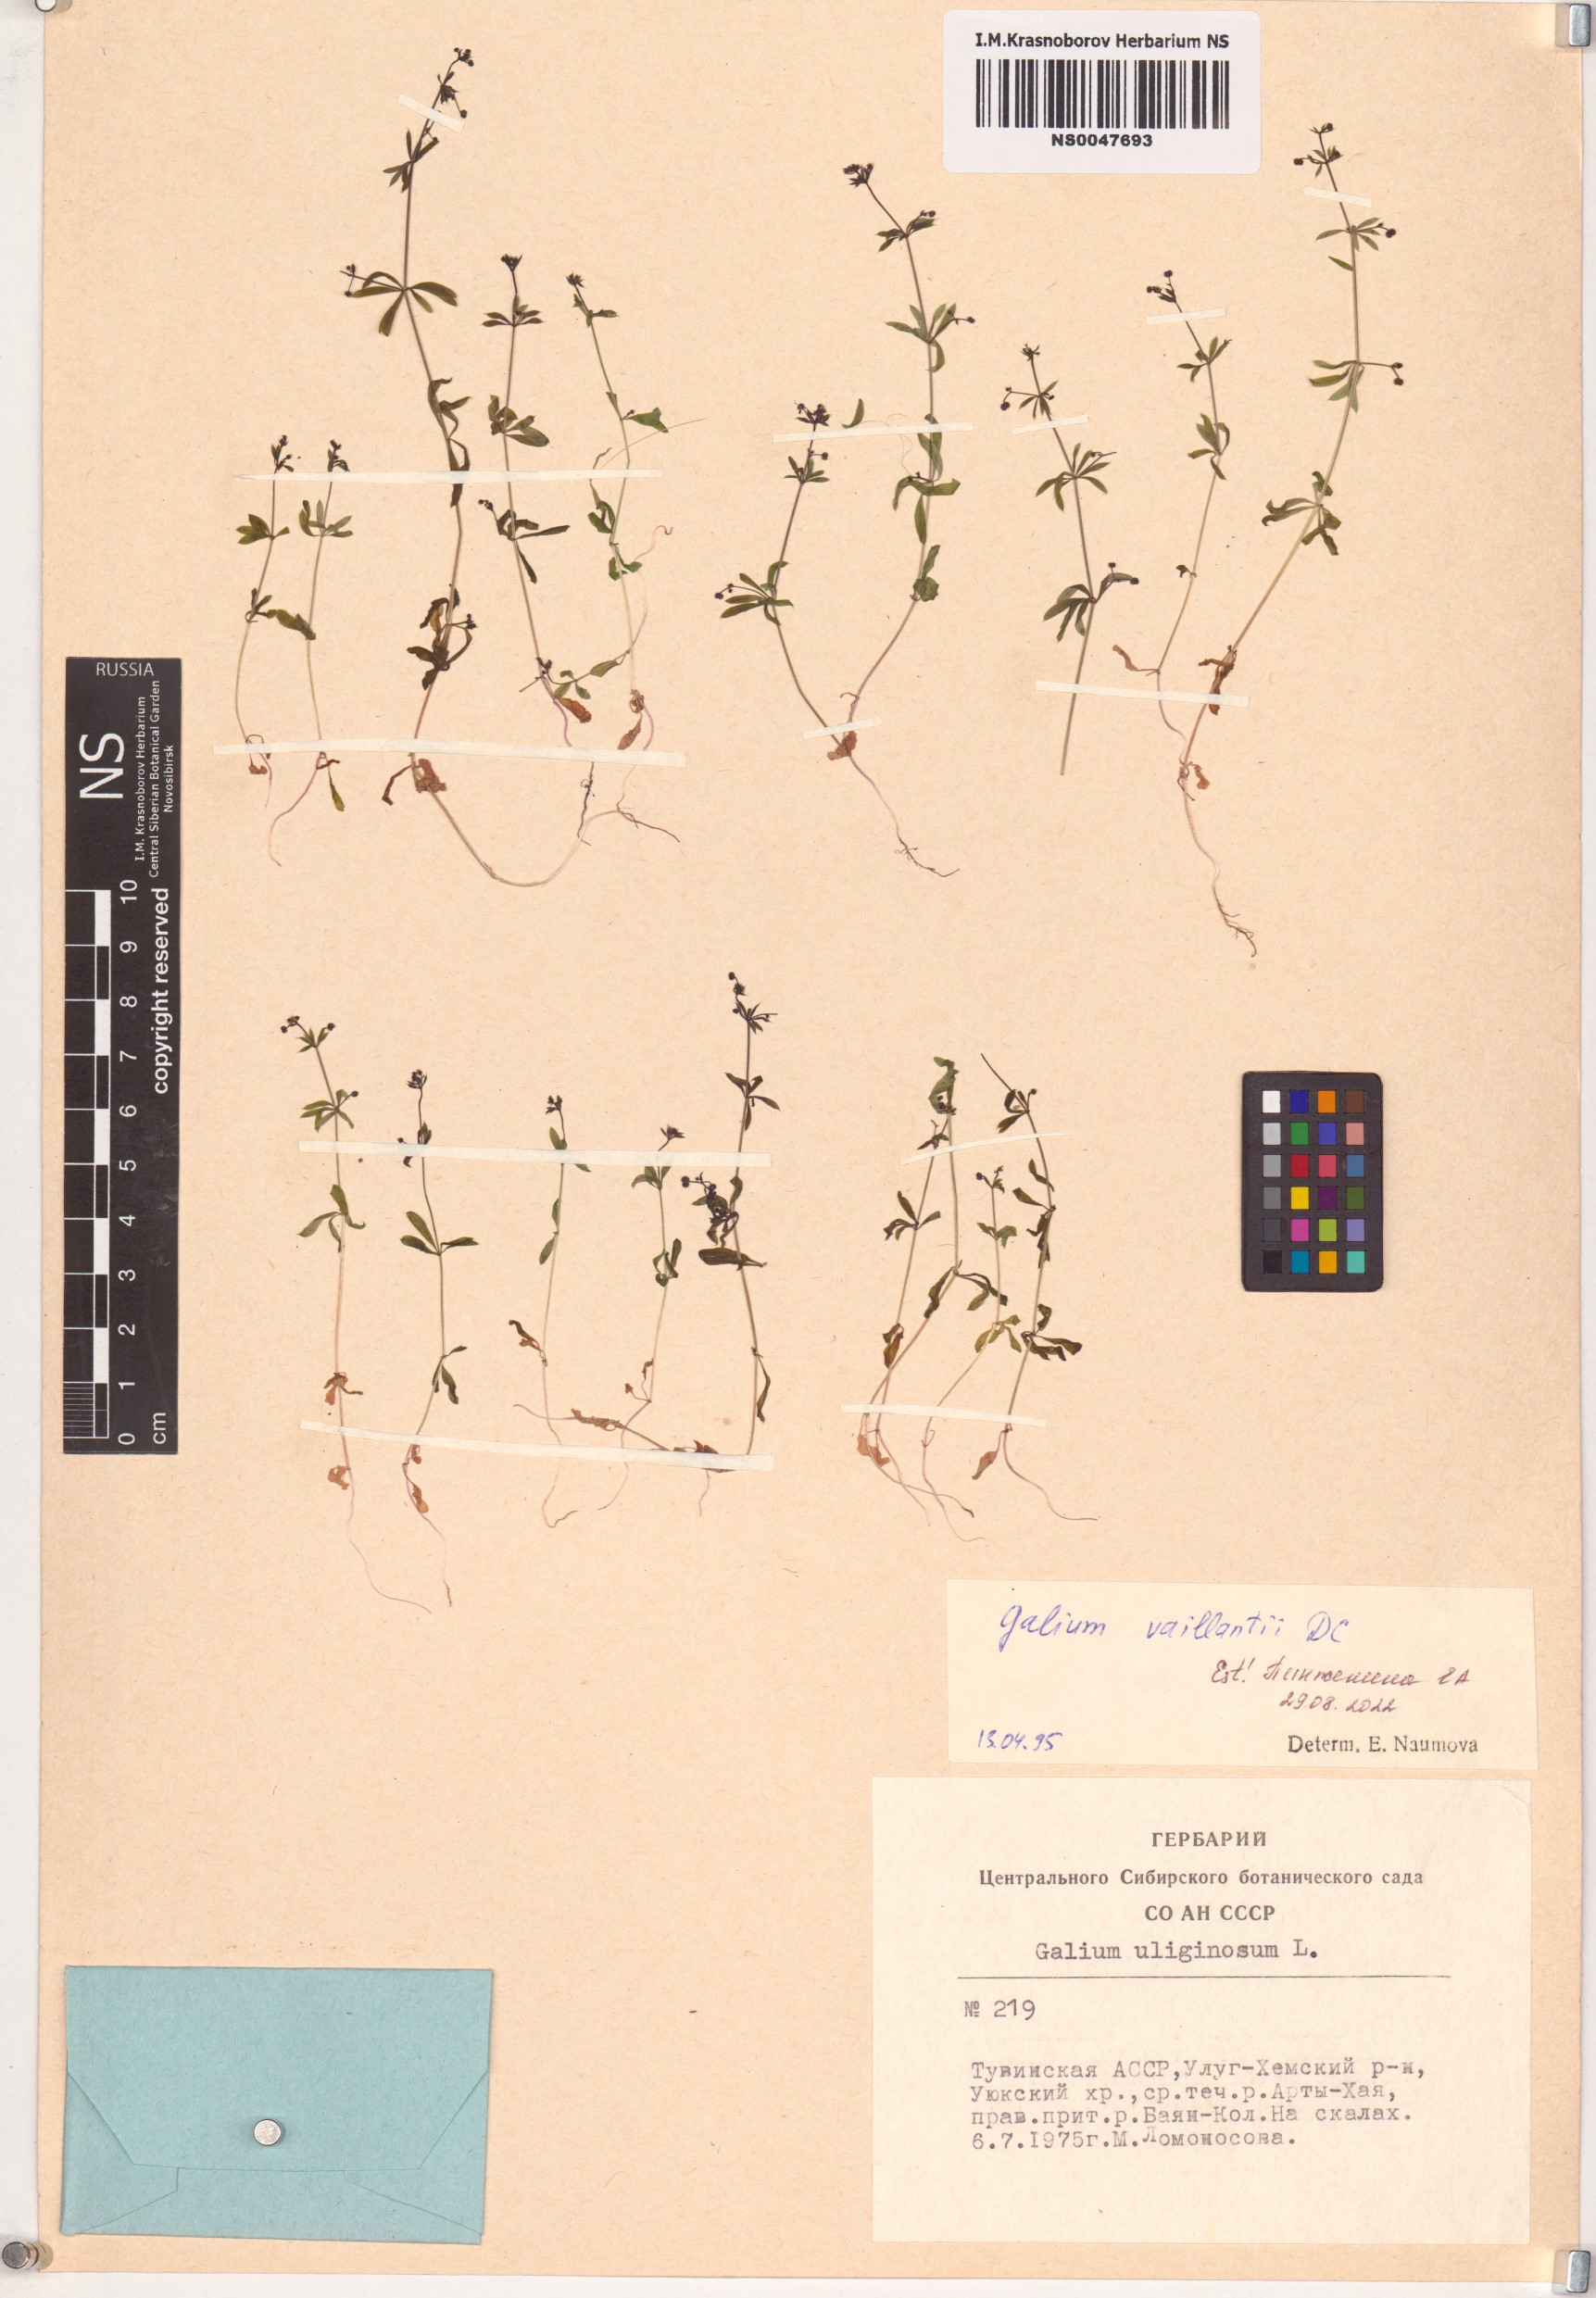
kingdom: Plantae
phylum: Tracheophyta
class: Magnoliopsida
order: Gentianales
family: Rubiaceae
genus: Galium
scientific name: Galium spurium
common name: False cleavers
